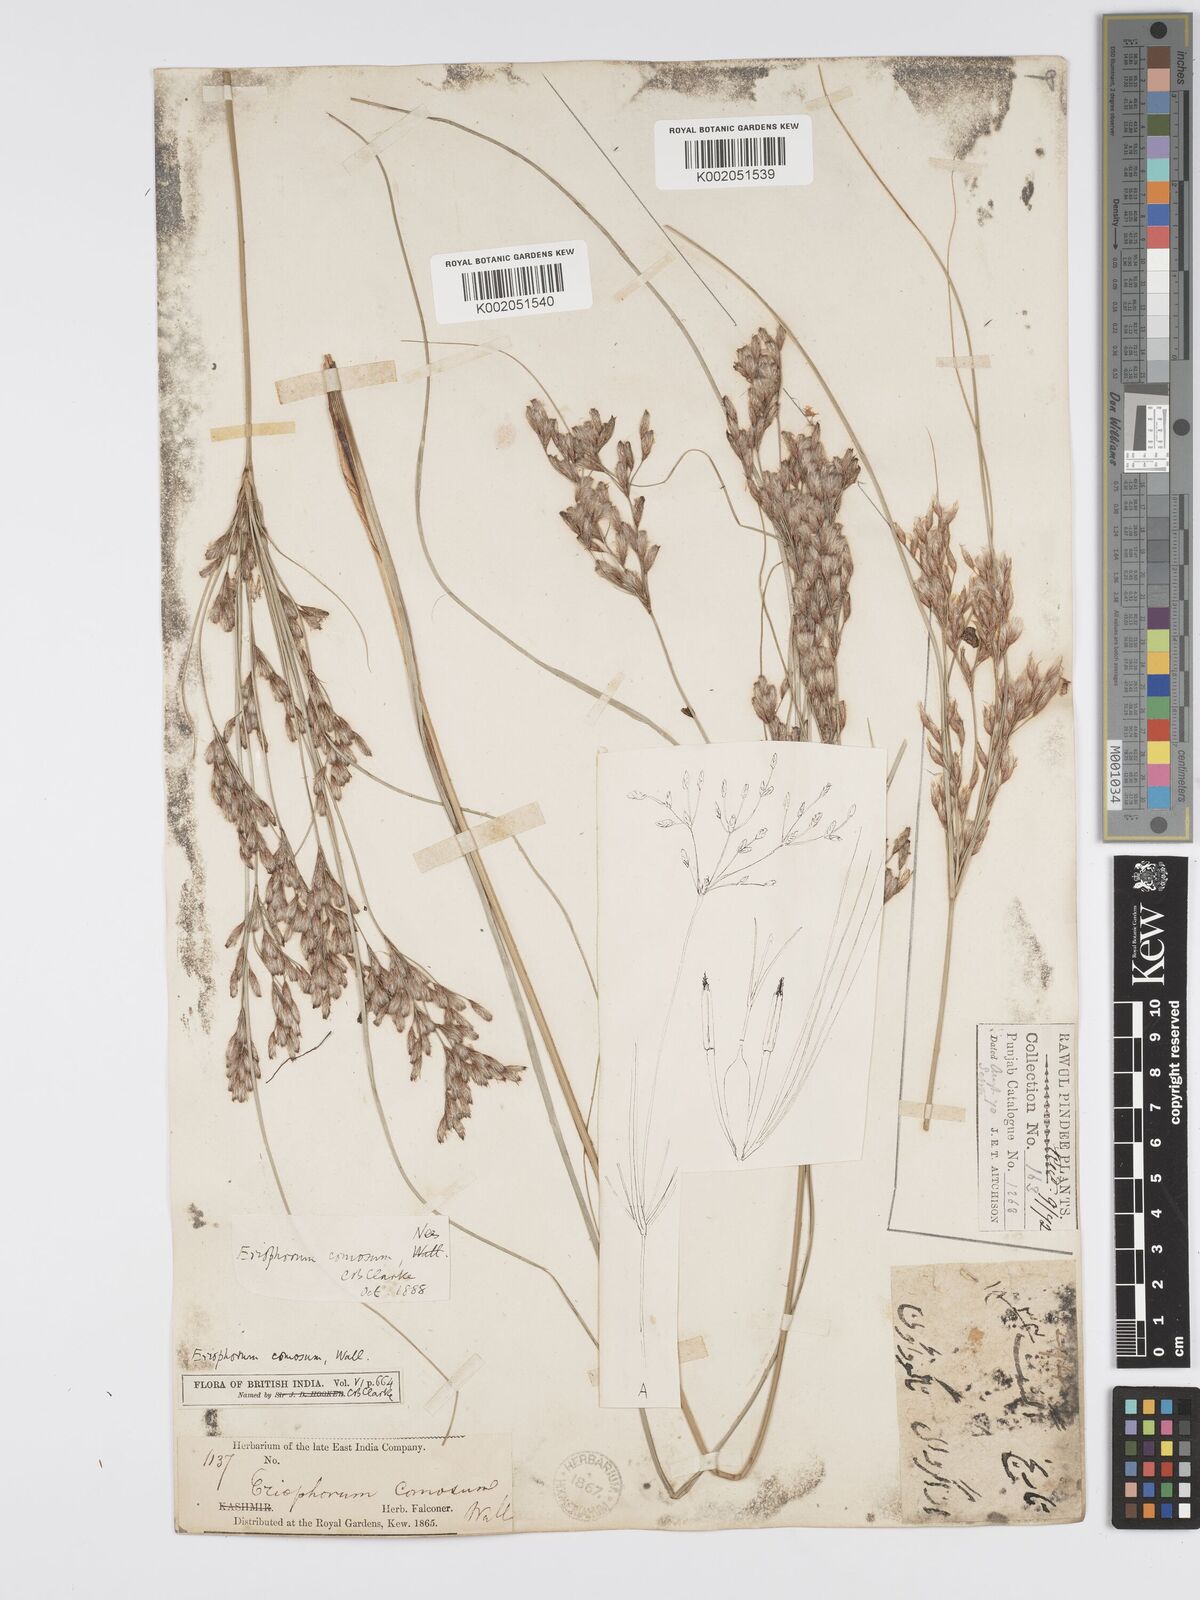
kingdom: Plantae
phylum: Tracheophyta
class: Liliopsida
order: Poales
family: Cyperaceae
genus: Erioscirpus
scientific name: Erioscirpus comosus
